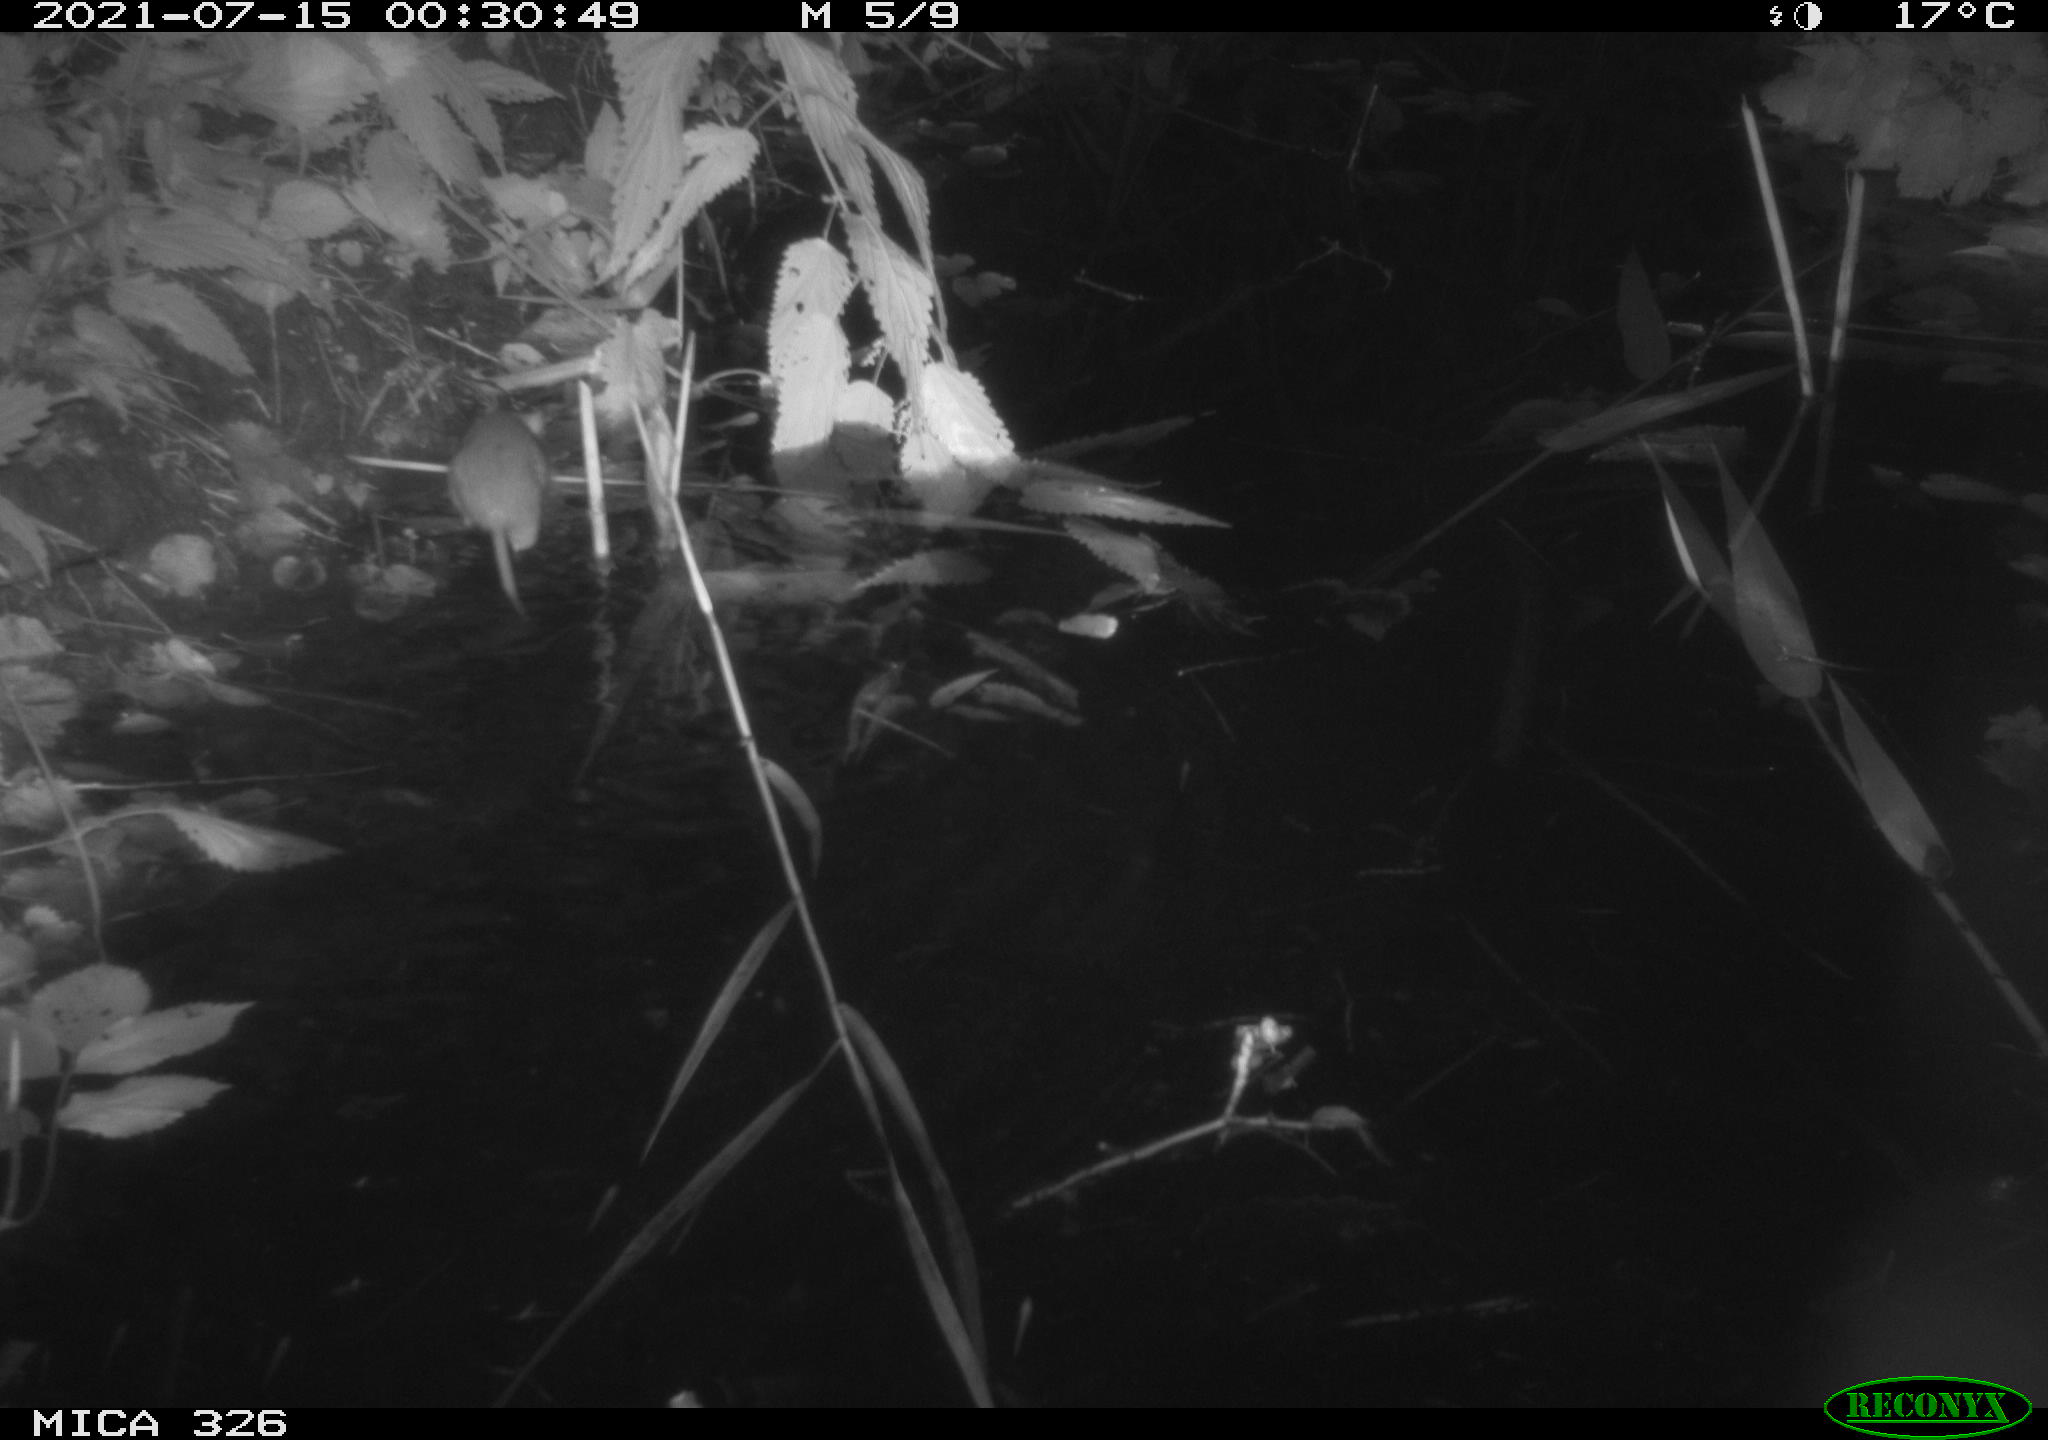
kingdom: Animalia
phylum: Chordata
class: Mammalia
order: Rodentia
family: Muridae
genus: Rattus
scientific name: Rattus norvegicus
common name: Brown rat
